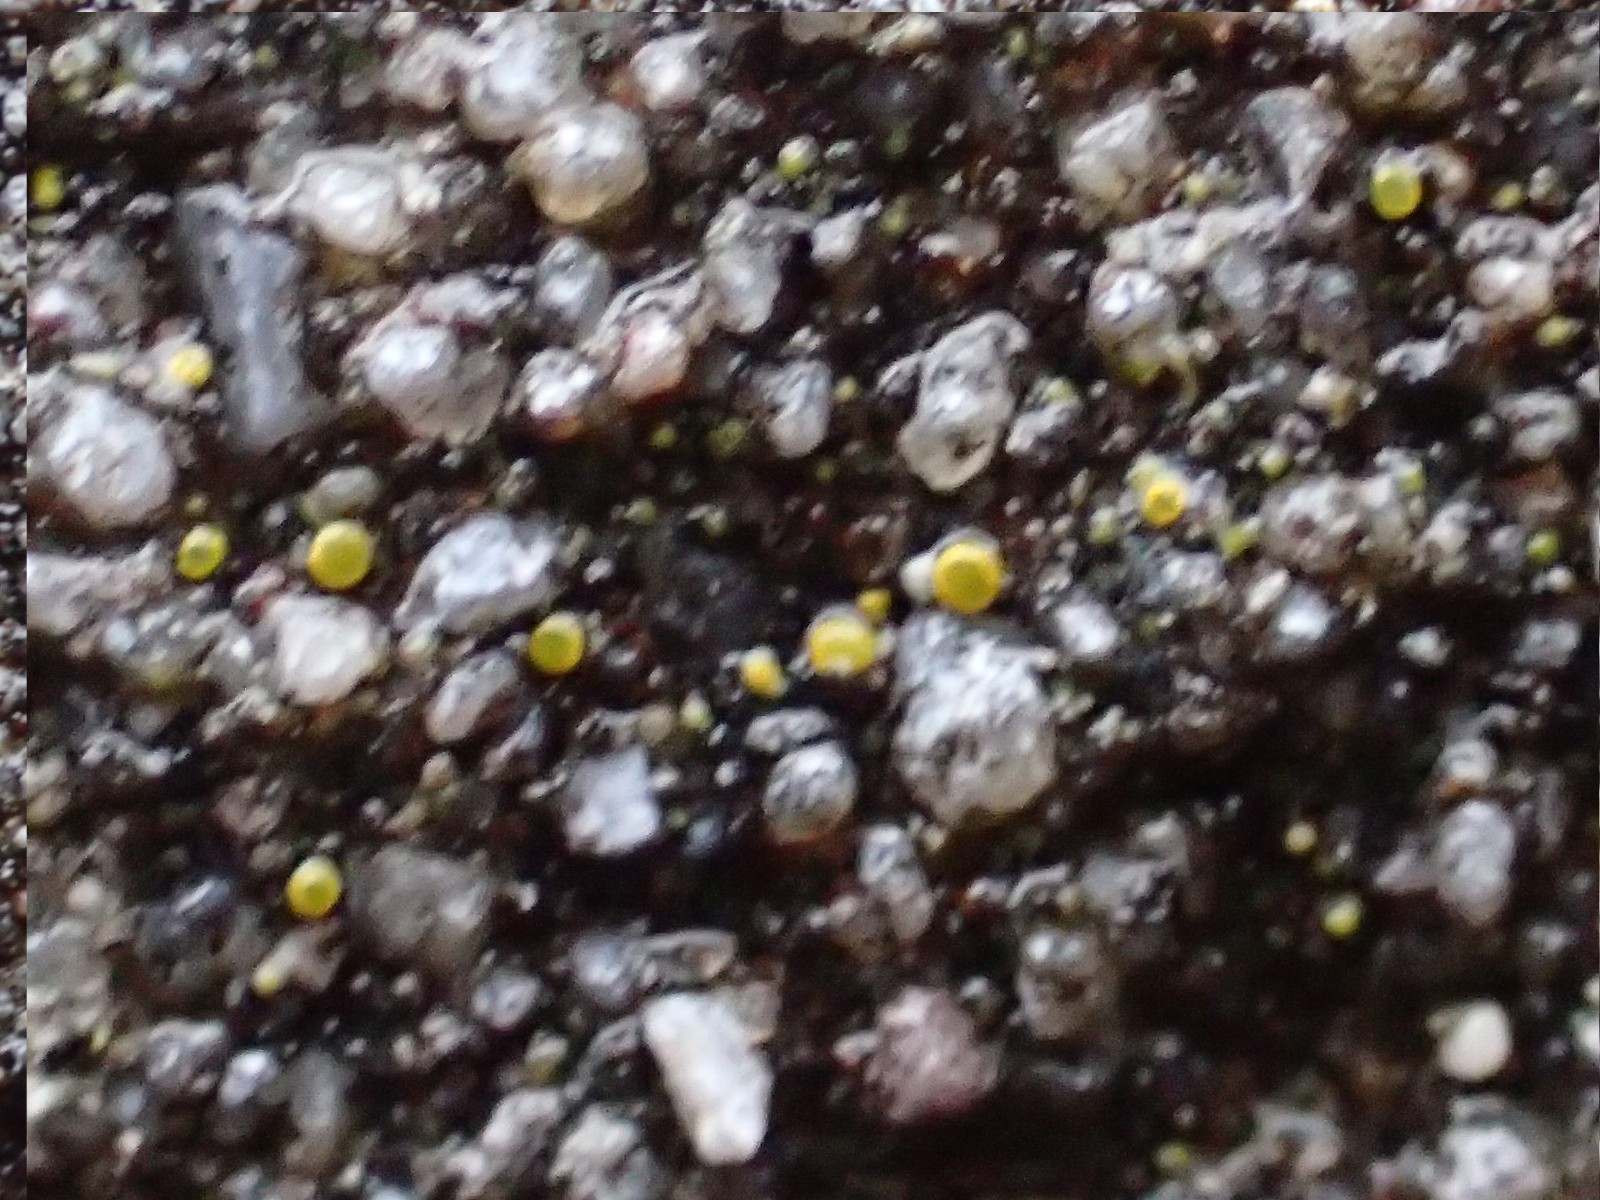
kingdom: Fungi
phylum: Ascomycota
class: Candelariomycetes
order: Candelariales
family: Candelariaceae
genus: Candelariella
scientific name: Candelariella aurella
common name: liden æggeblommelav
